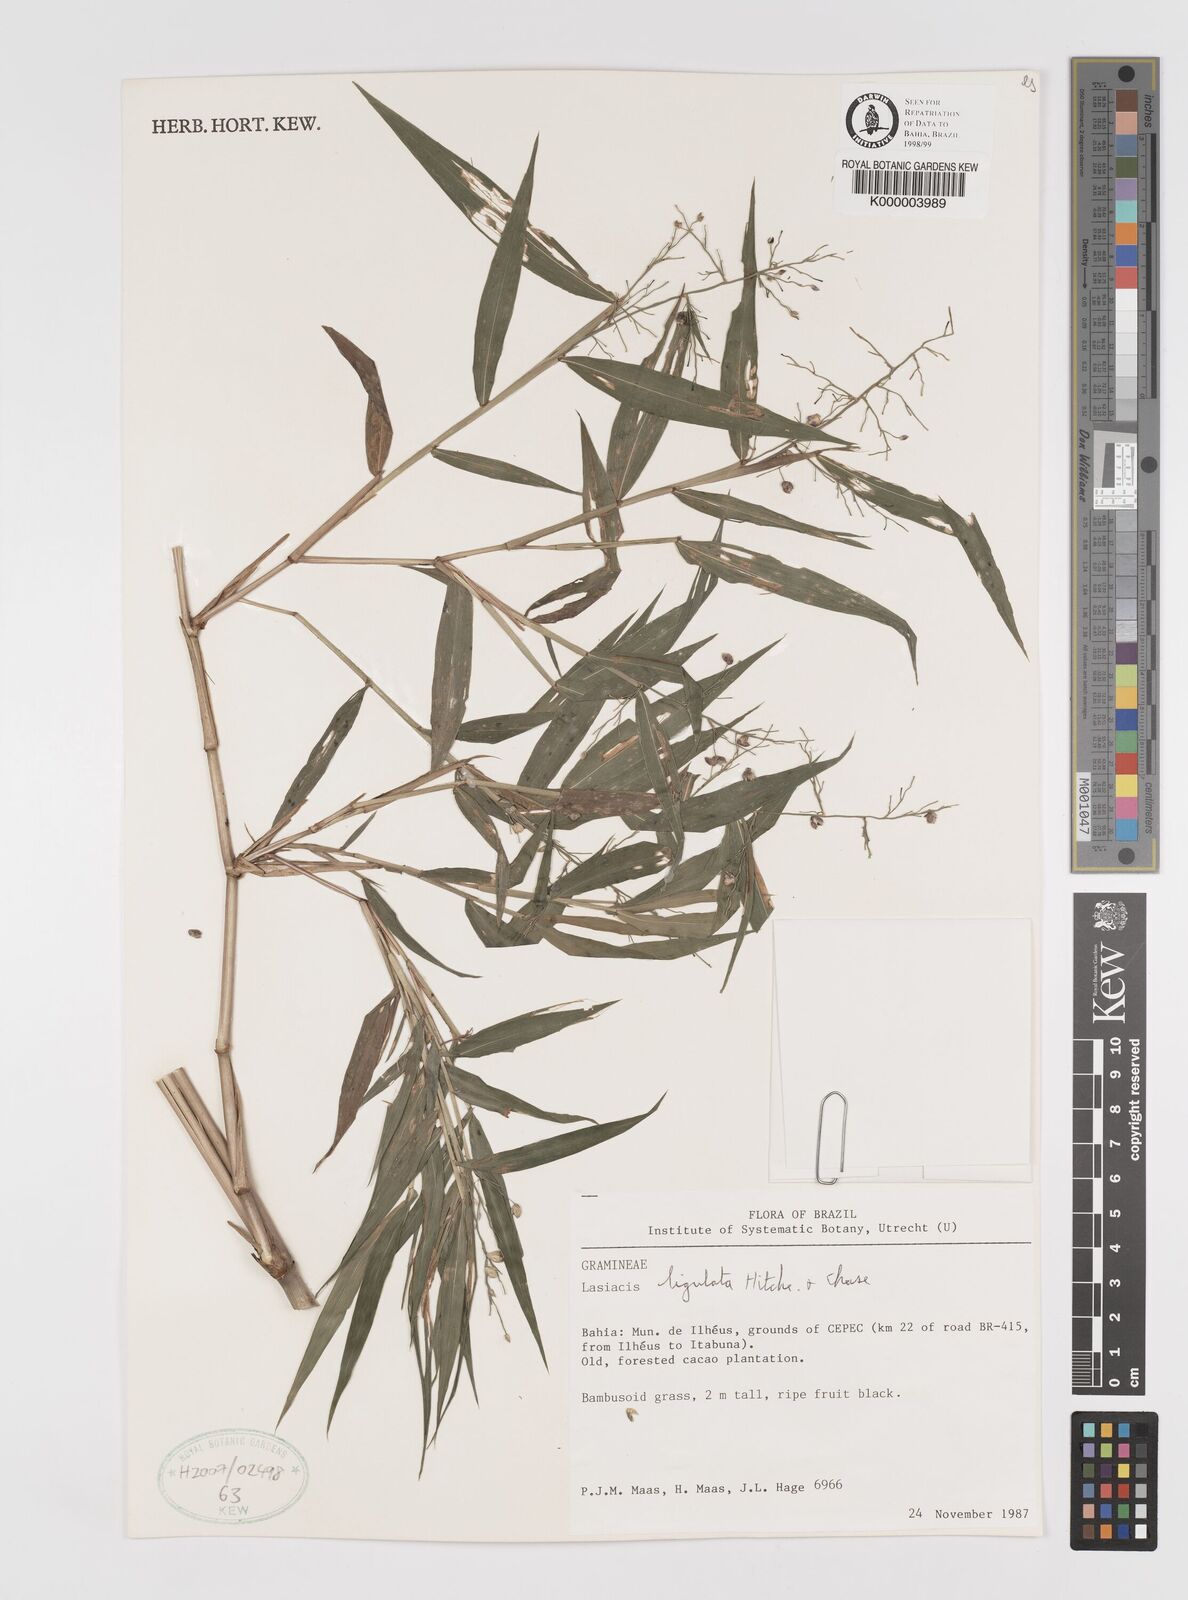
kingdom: Plantae
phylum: Tracheophyta
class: Liliopsida
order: Poales
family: Poaceae
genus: Lasiacis
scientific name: Lasiacis ligulata
